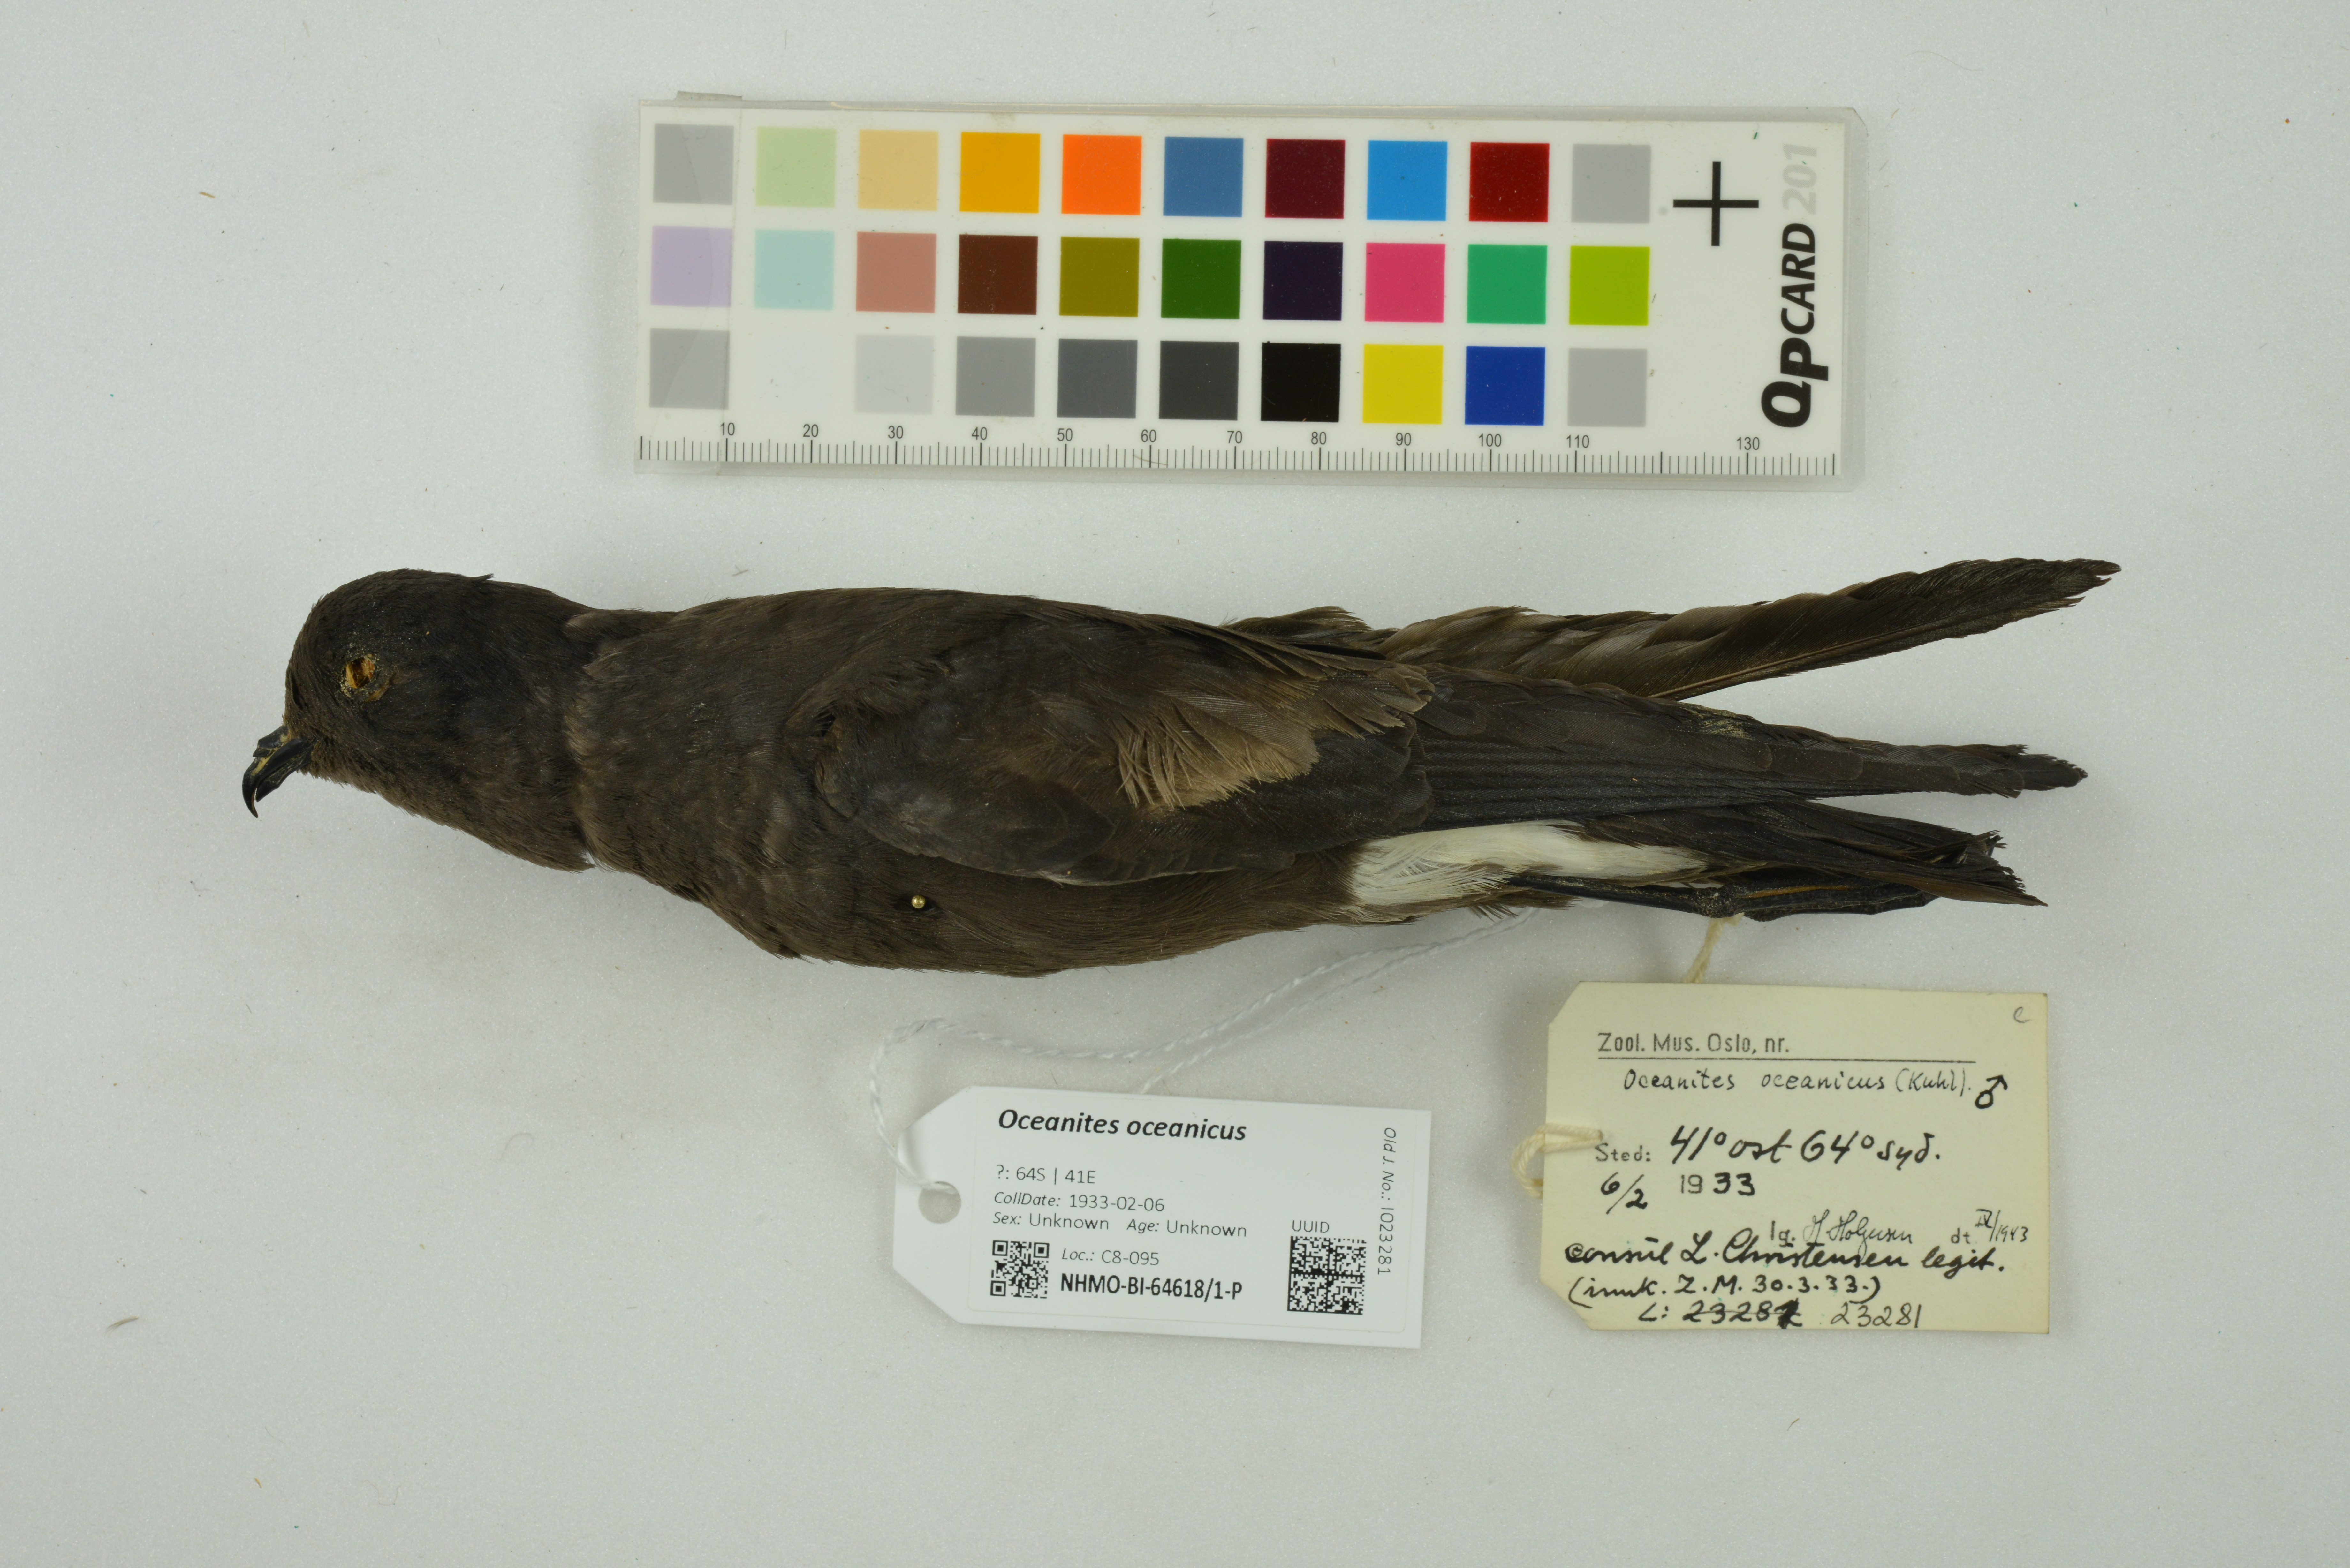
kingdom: Animalia
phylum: Chordata
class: Aves
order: Procellariiformes
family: Hydrobatidae
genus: Oceanites
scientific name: Oceanites oceanicus
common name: Wilson's storm petrel
